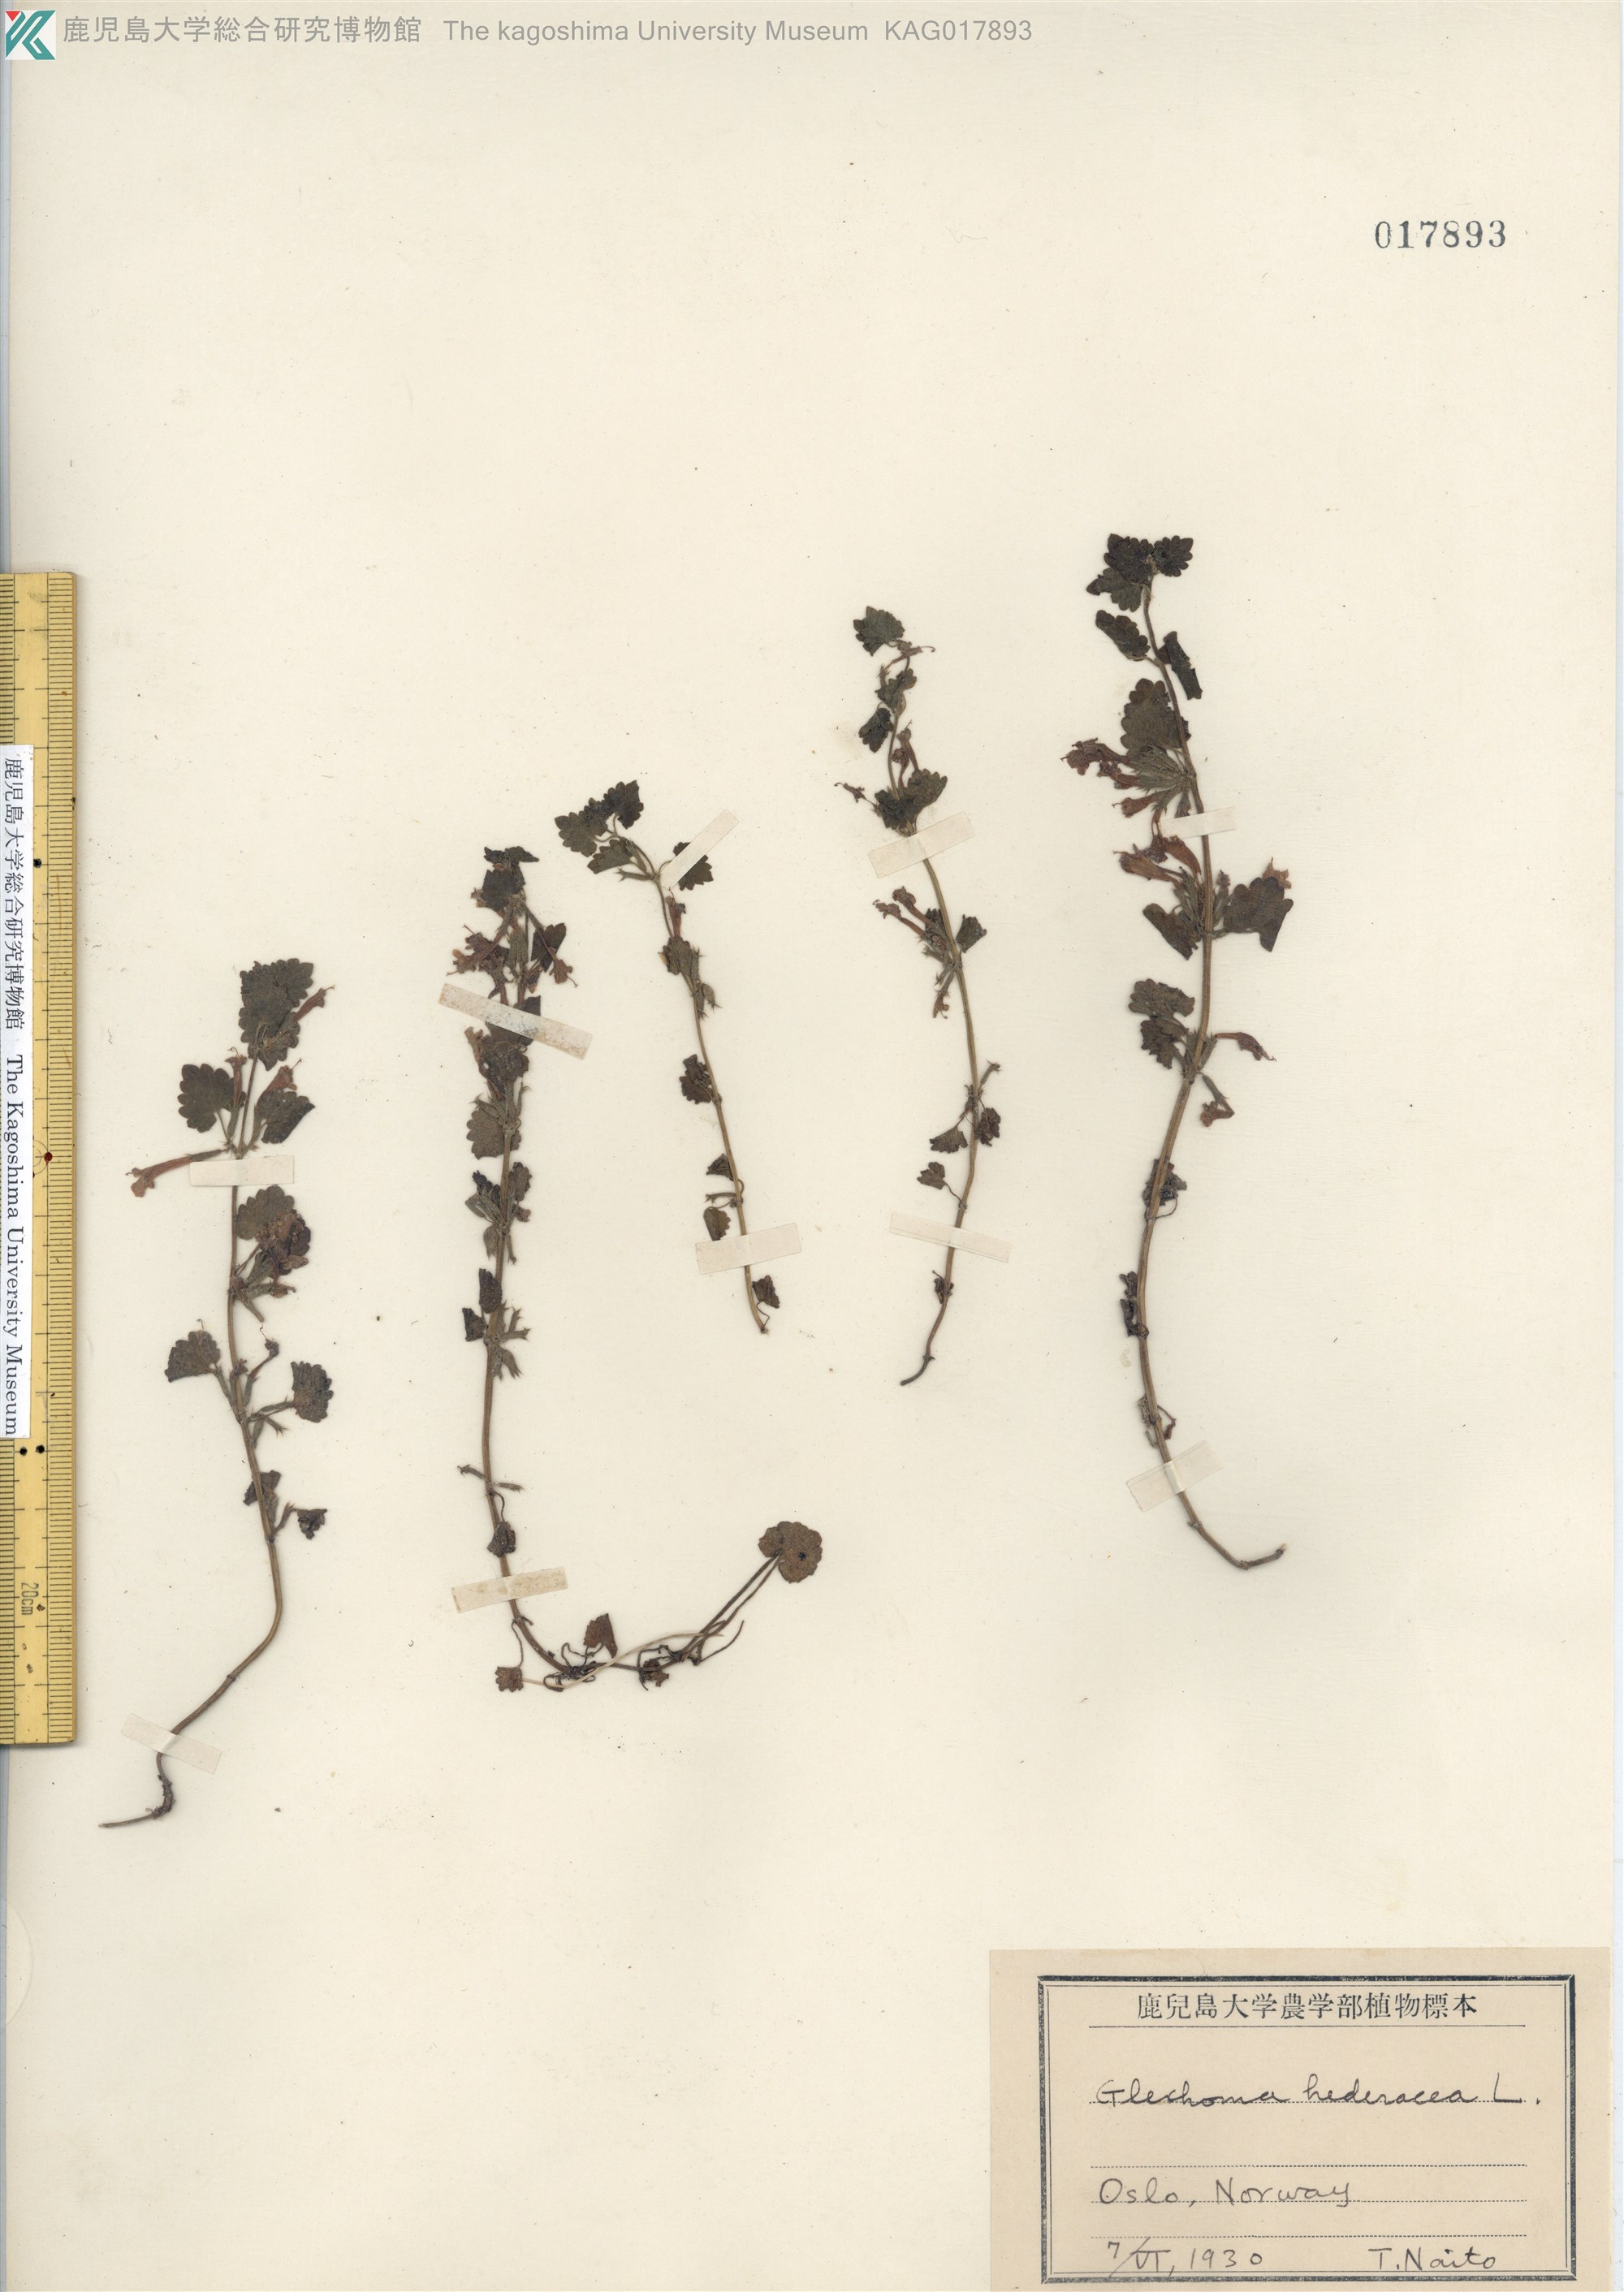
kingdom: Plantae
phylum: Tracheophyta
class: Magnoliopsida
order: Lamiales
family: Lamiaceae
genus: Glechoma
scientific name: Glechoma hederacea
